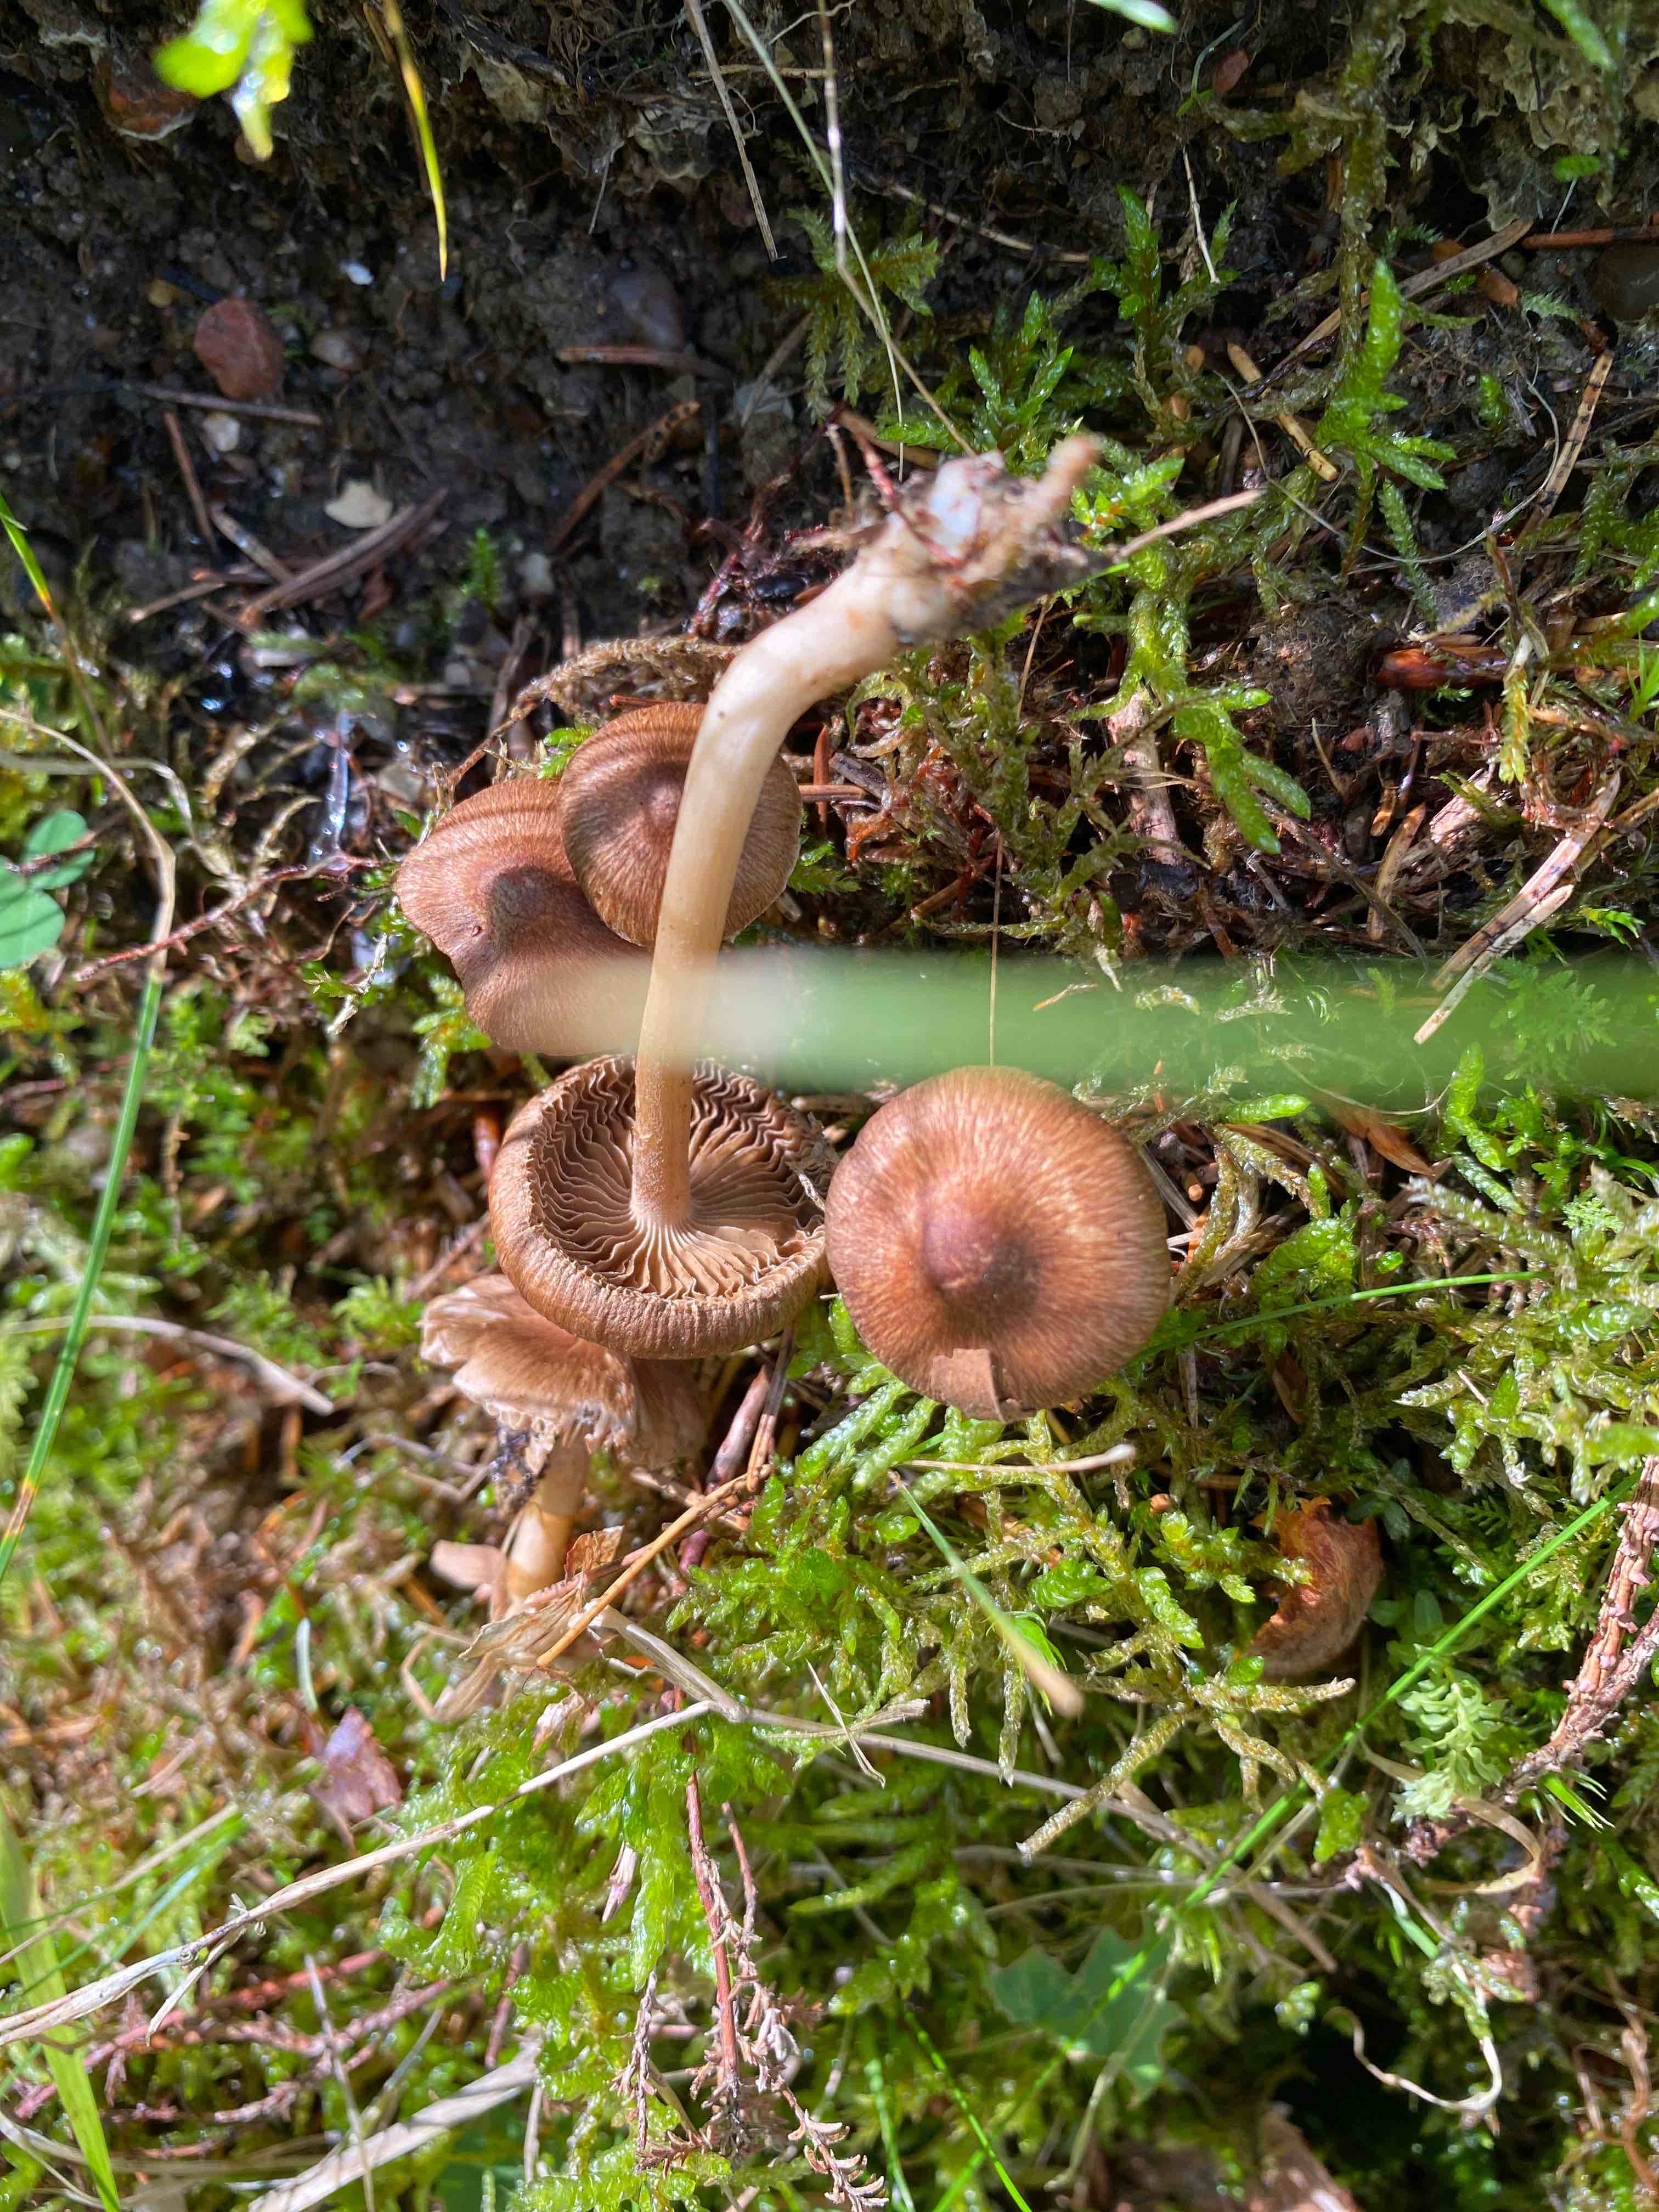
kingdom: Fungi
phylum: Basidiomycota
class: Agaricomycetes
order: Agaricales
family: Inocybaceae
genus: Inocybe
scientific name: Inocybe
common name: trævlhat
